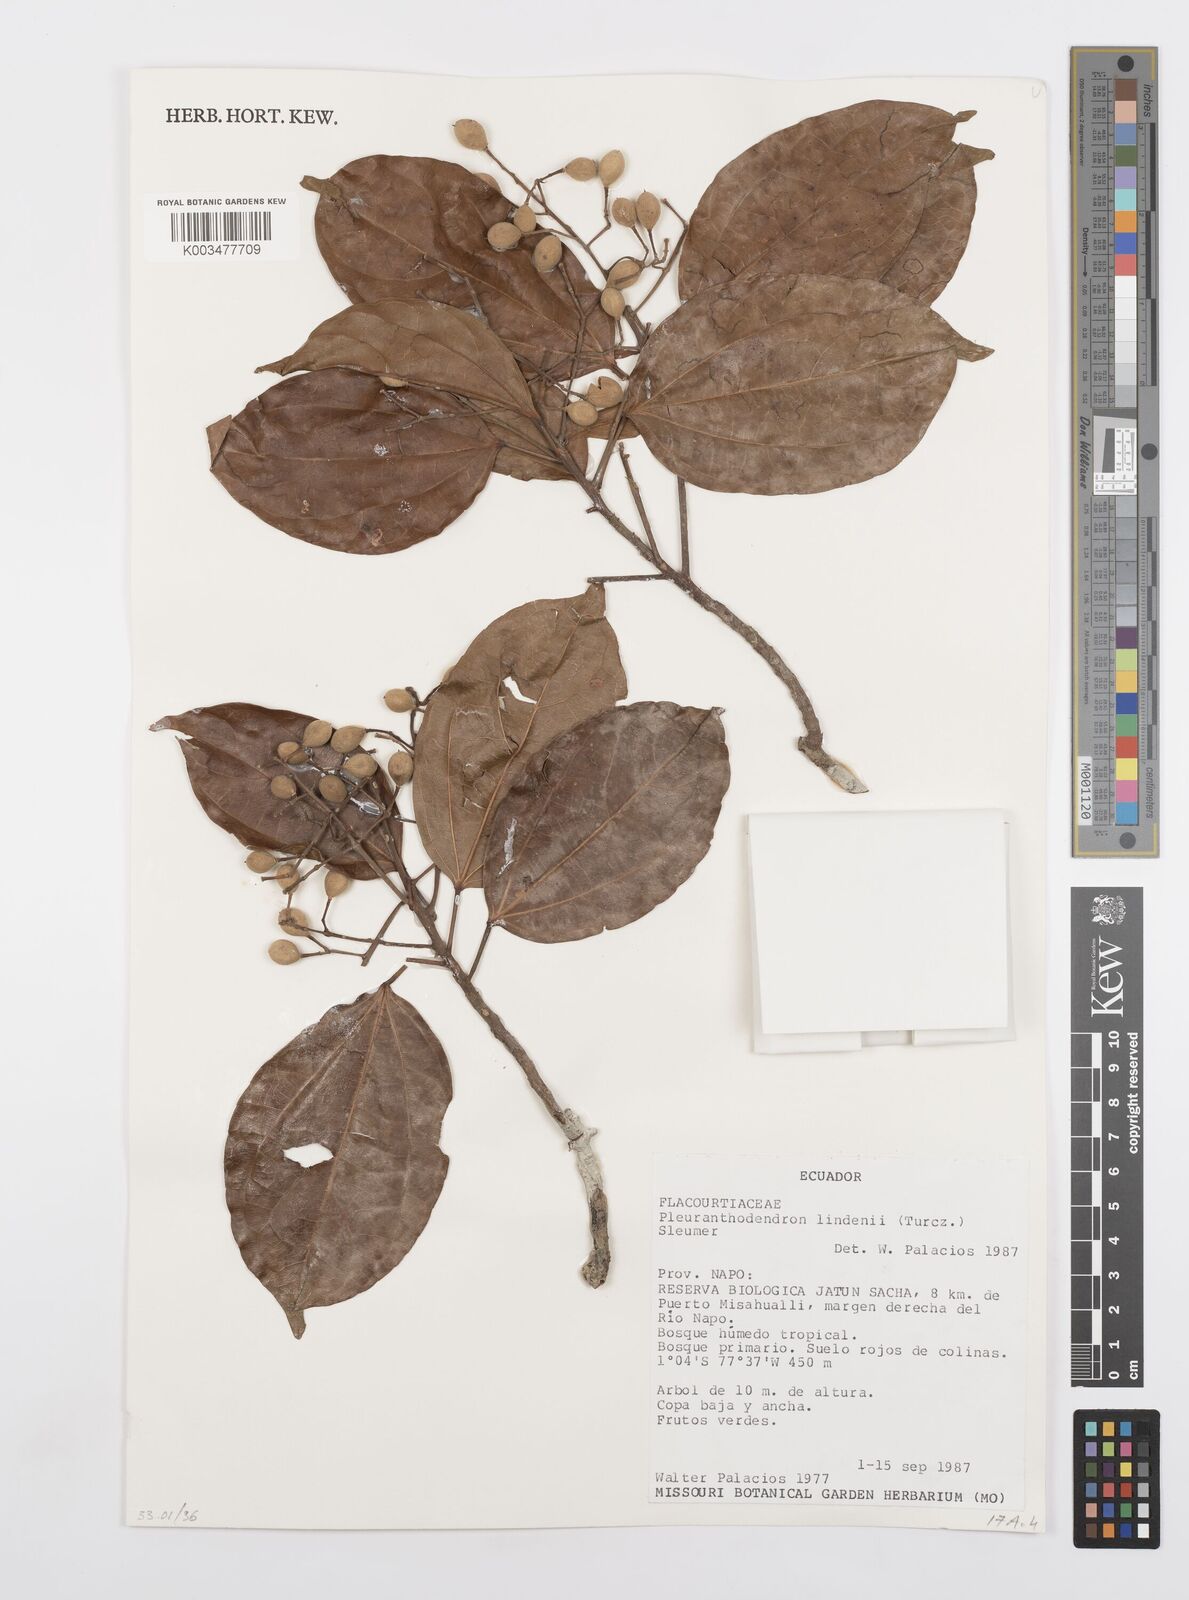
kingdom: Plantae
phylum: Tracheophyta
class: Magnoliopsida
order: Malpighiales
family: Salicaceae
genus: Pleuranthodendron
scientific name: Pleuranthodendron lindenii
